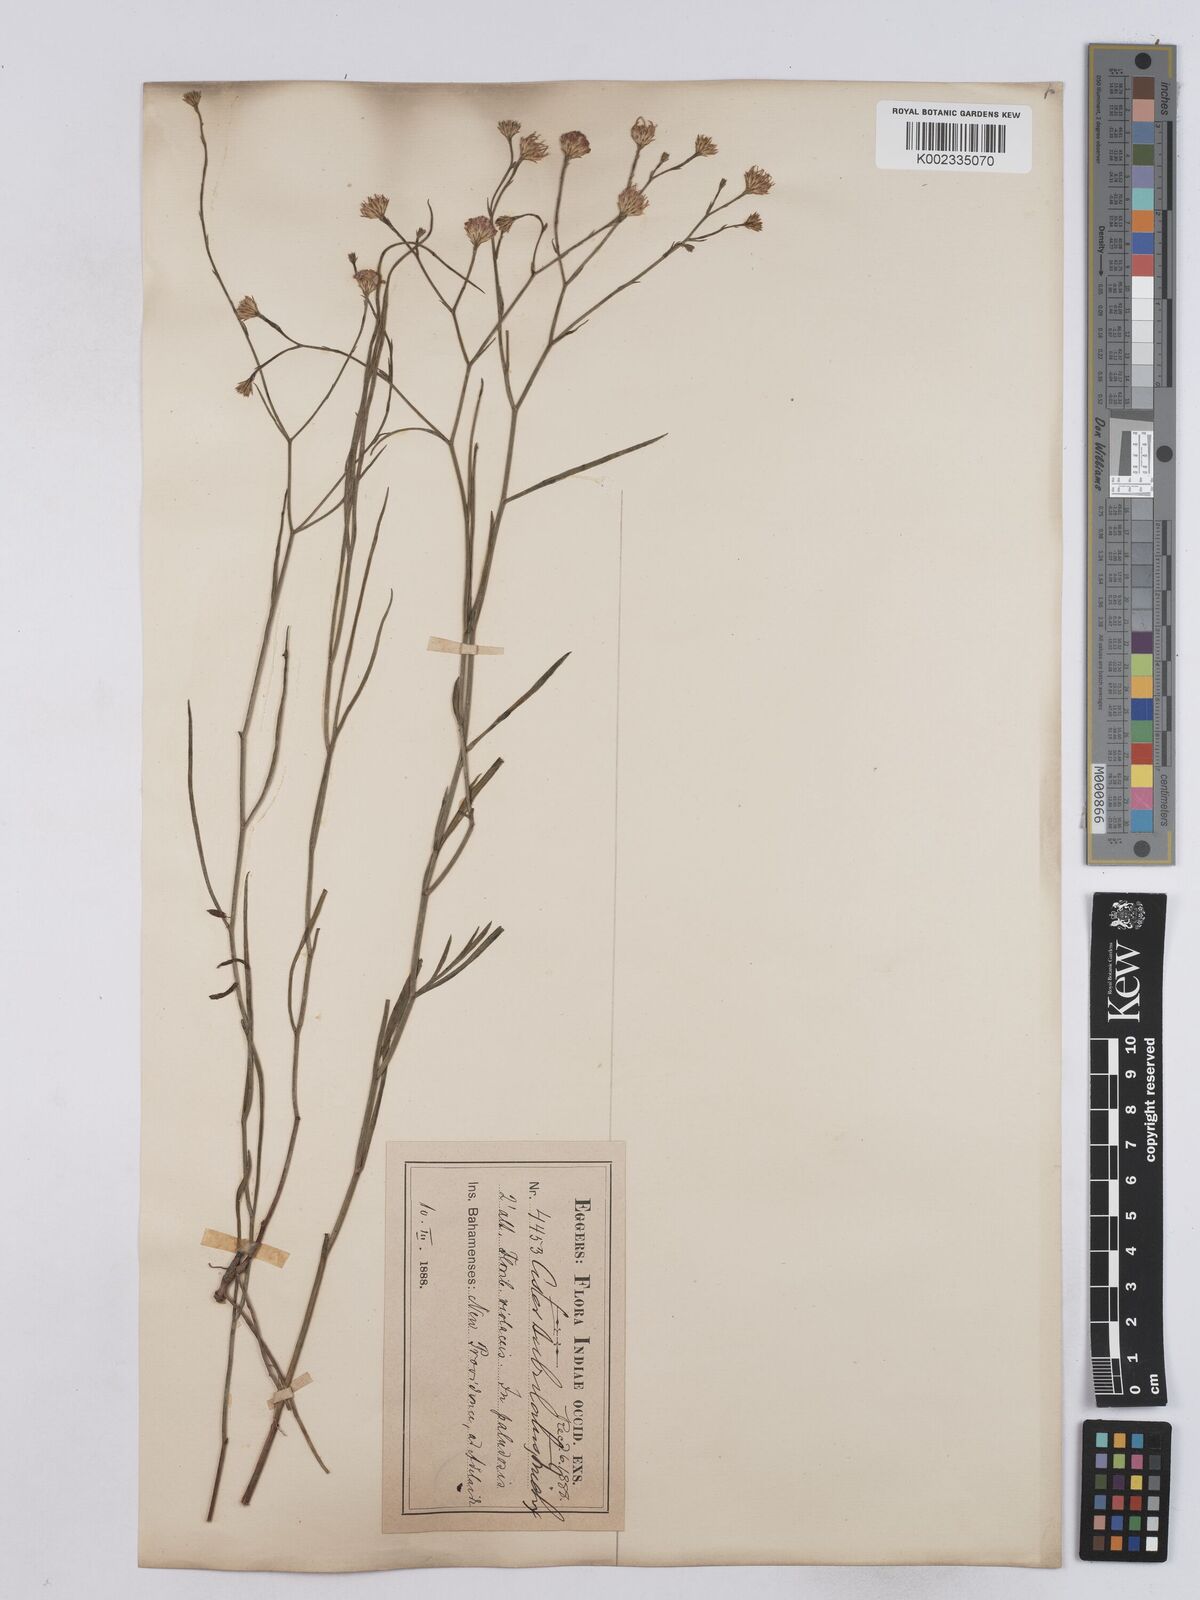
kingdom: Plantae
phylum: Tracheophyta
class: Magnoliopsida
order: Asterales
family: Asteraceae
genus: Symphyotrichum
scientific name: Symphyotrichum tenuifolium
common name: Perennial salt-marsh aster
